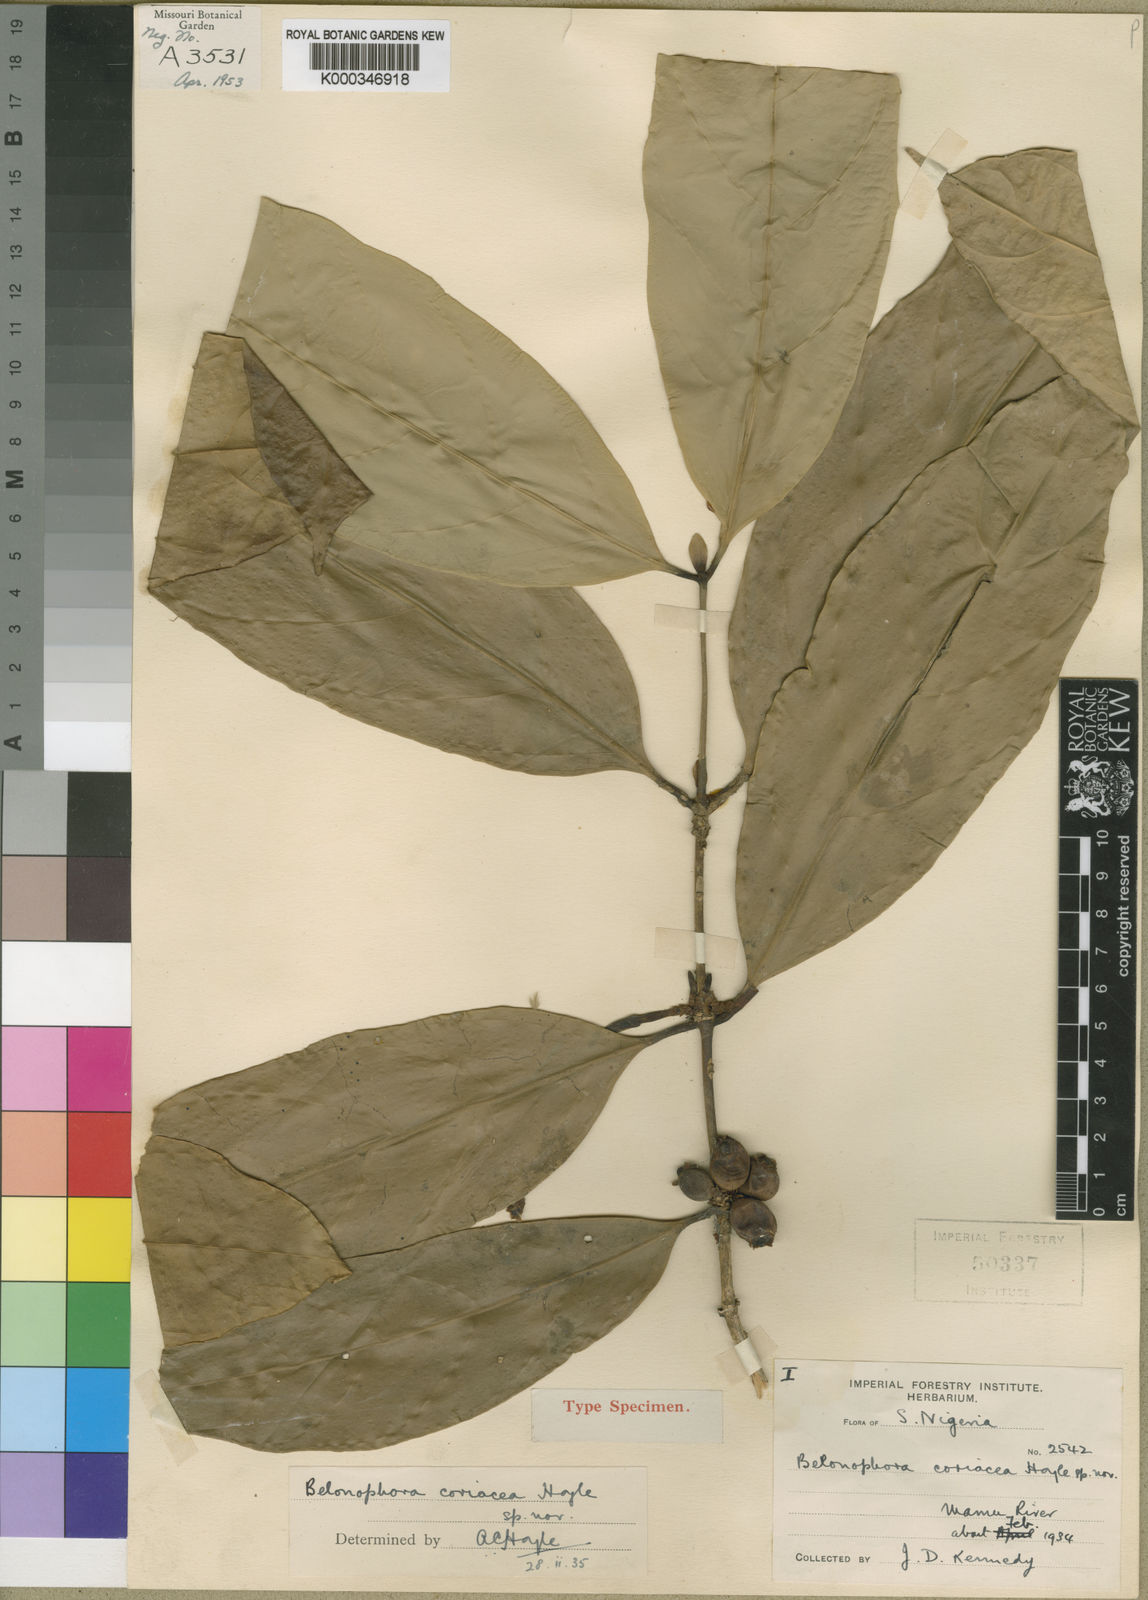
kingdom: Plantae
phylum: Tracheophyta
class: Magnoliopsida
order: Gentianales
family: Rubiaceae
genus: Belonophora
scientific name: Belonophora coriacea
